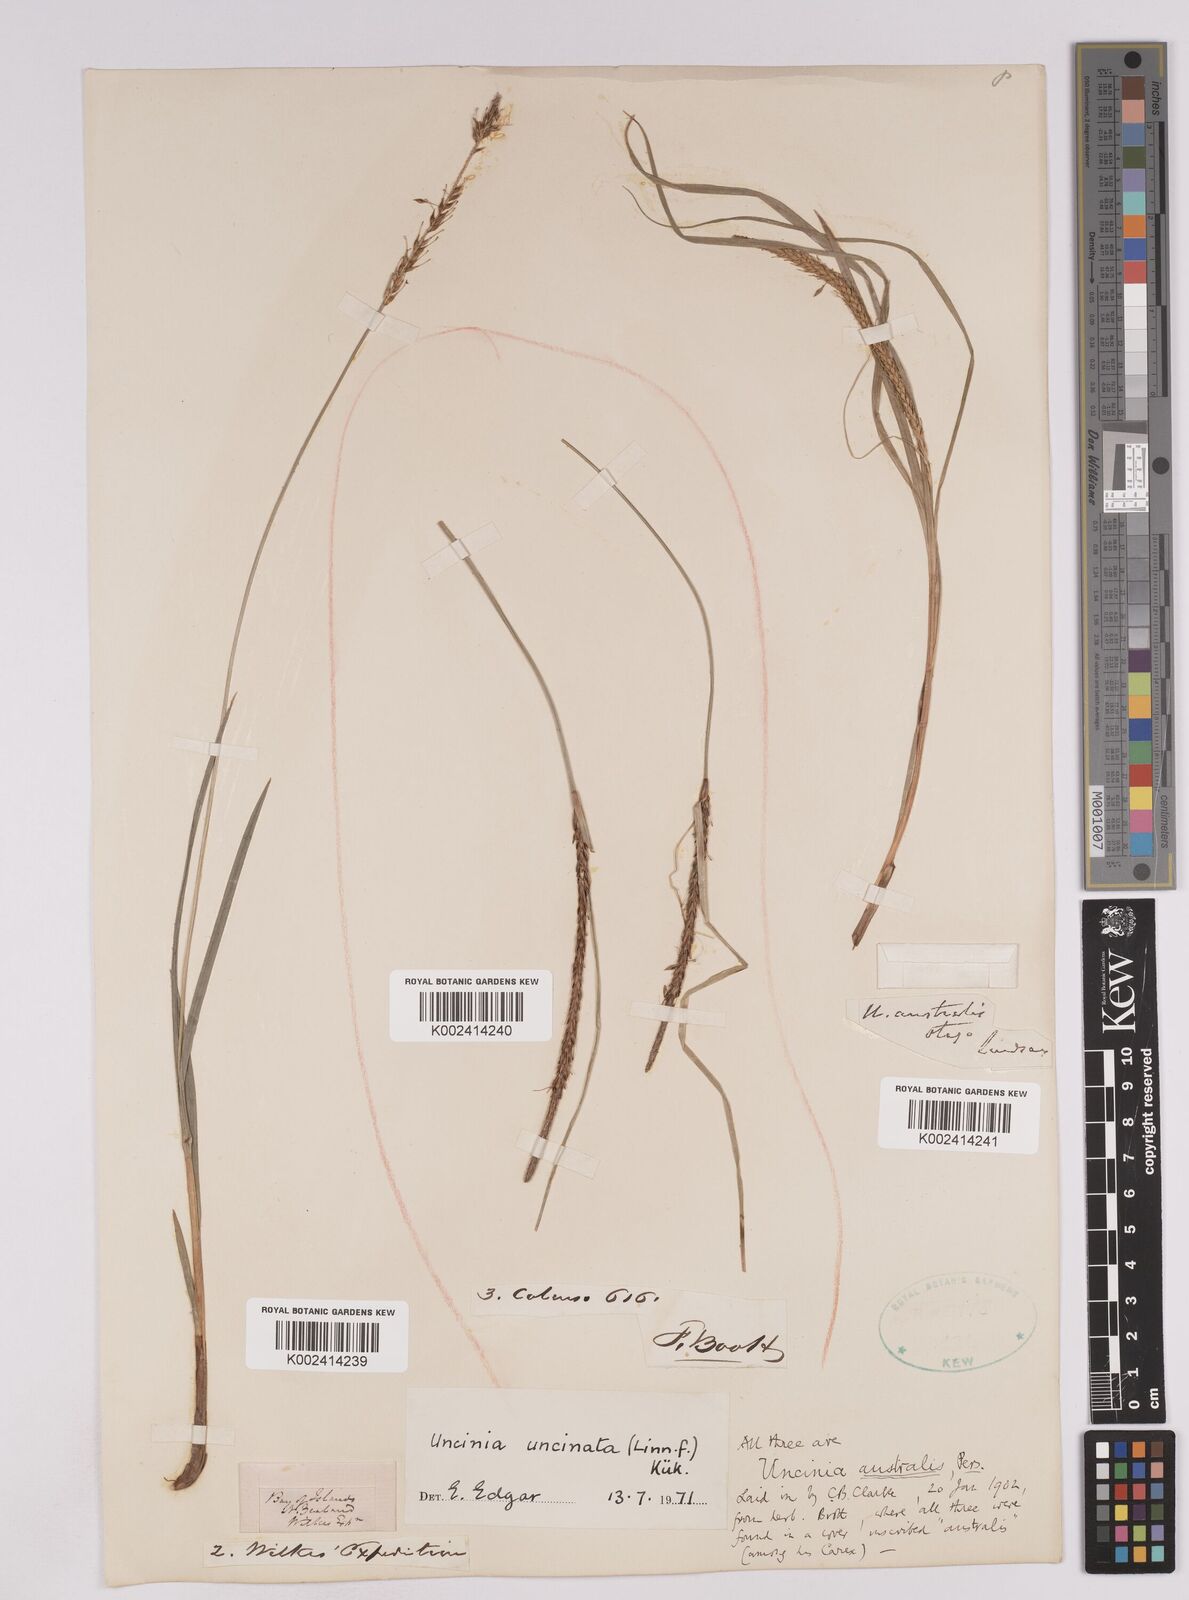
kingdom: Plantae
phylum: Tracheophyta
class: Liliopsida
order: Poales
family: Cyperaceae
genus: Carex
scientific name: Carex uncinata
